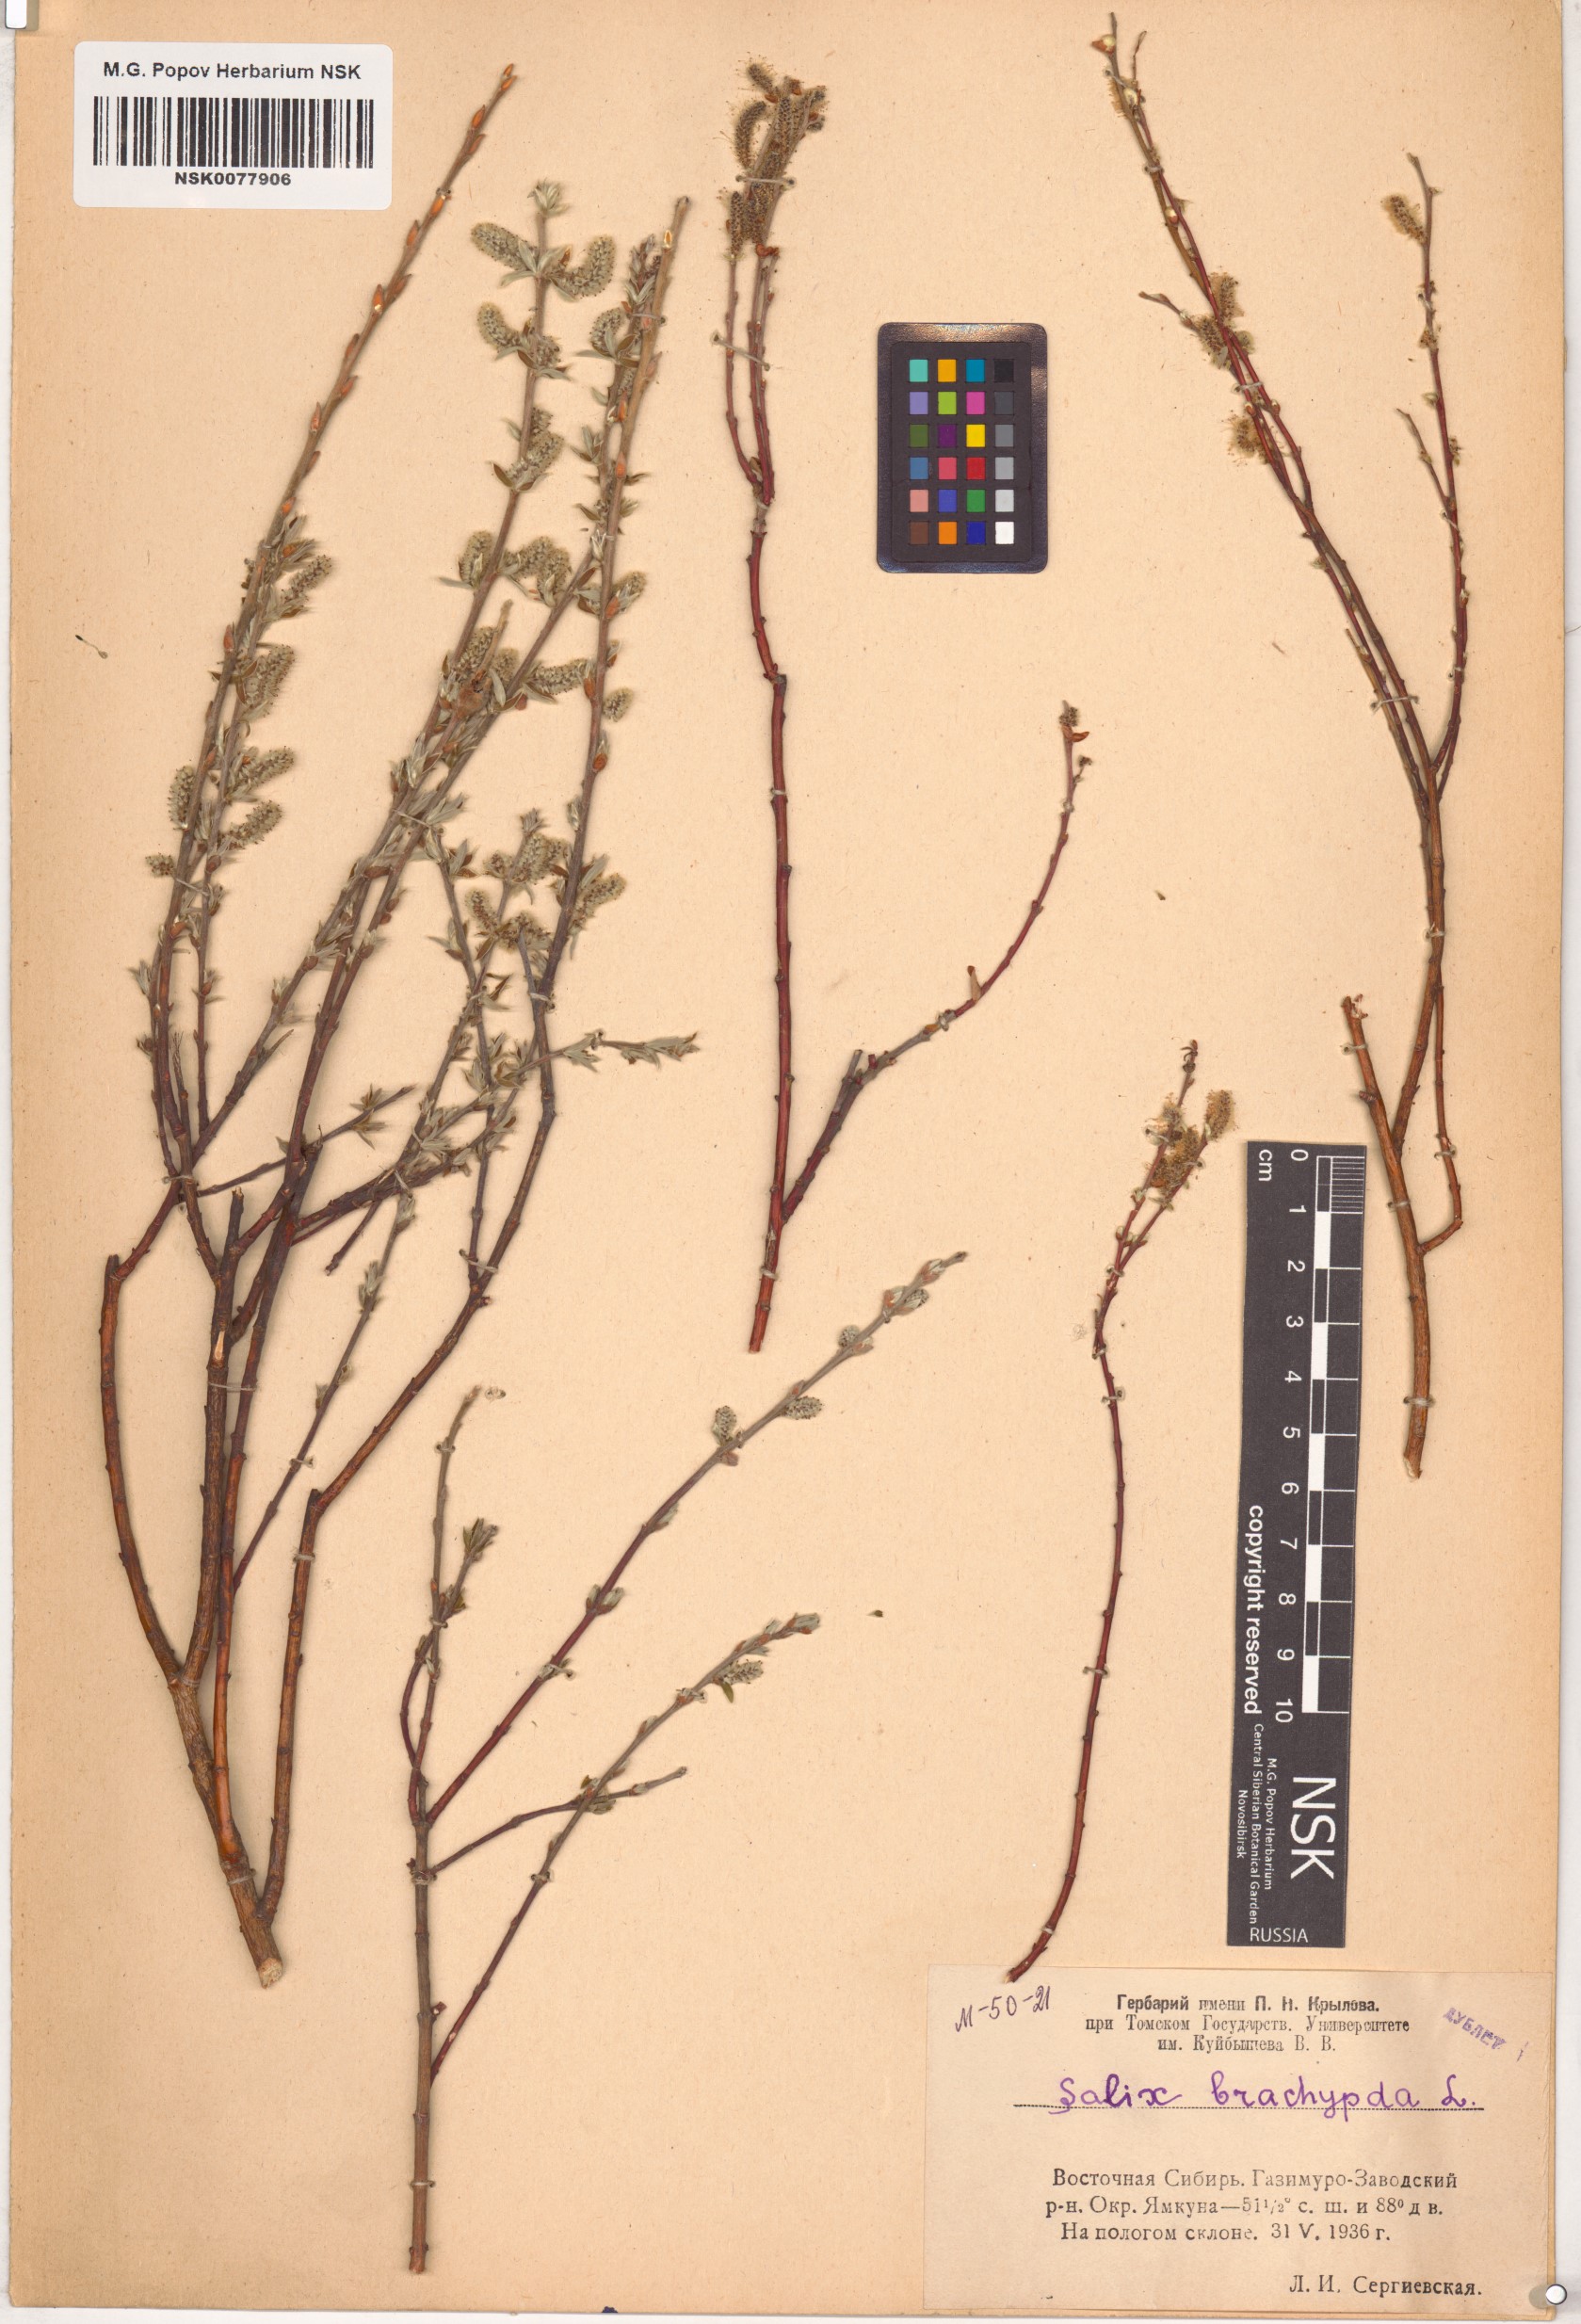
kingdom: Plantae
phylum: Tracheophyta
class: Magnoliopsida
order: Malpighiales
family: Salicaceae
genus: Salix
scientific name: Salix brachypoda
